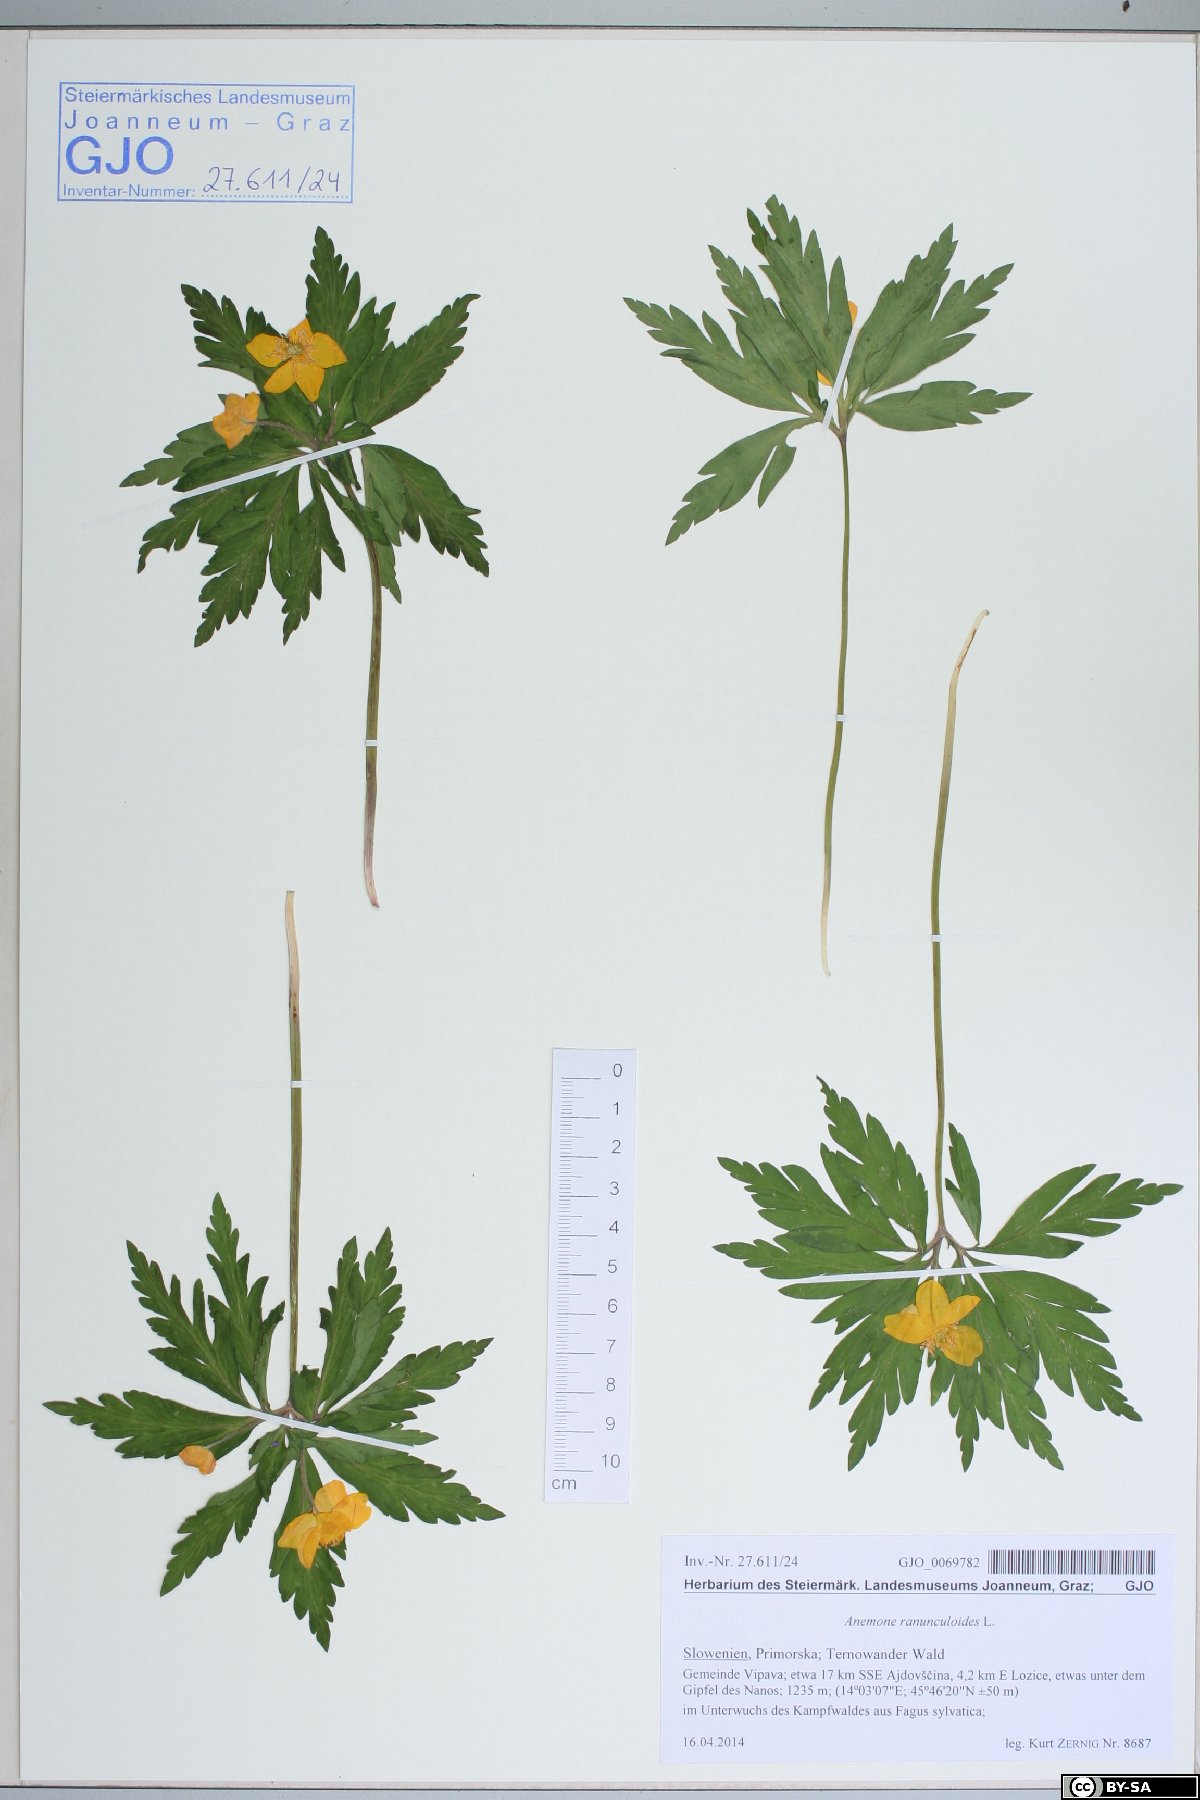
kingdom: Plantae
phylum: Tracheophyta
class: Magnoliopsida
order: Ranunculales
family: Ranunculaceae
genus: Anemone
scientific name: Anemone ranunculoides
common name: Yellow anemone
